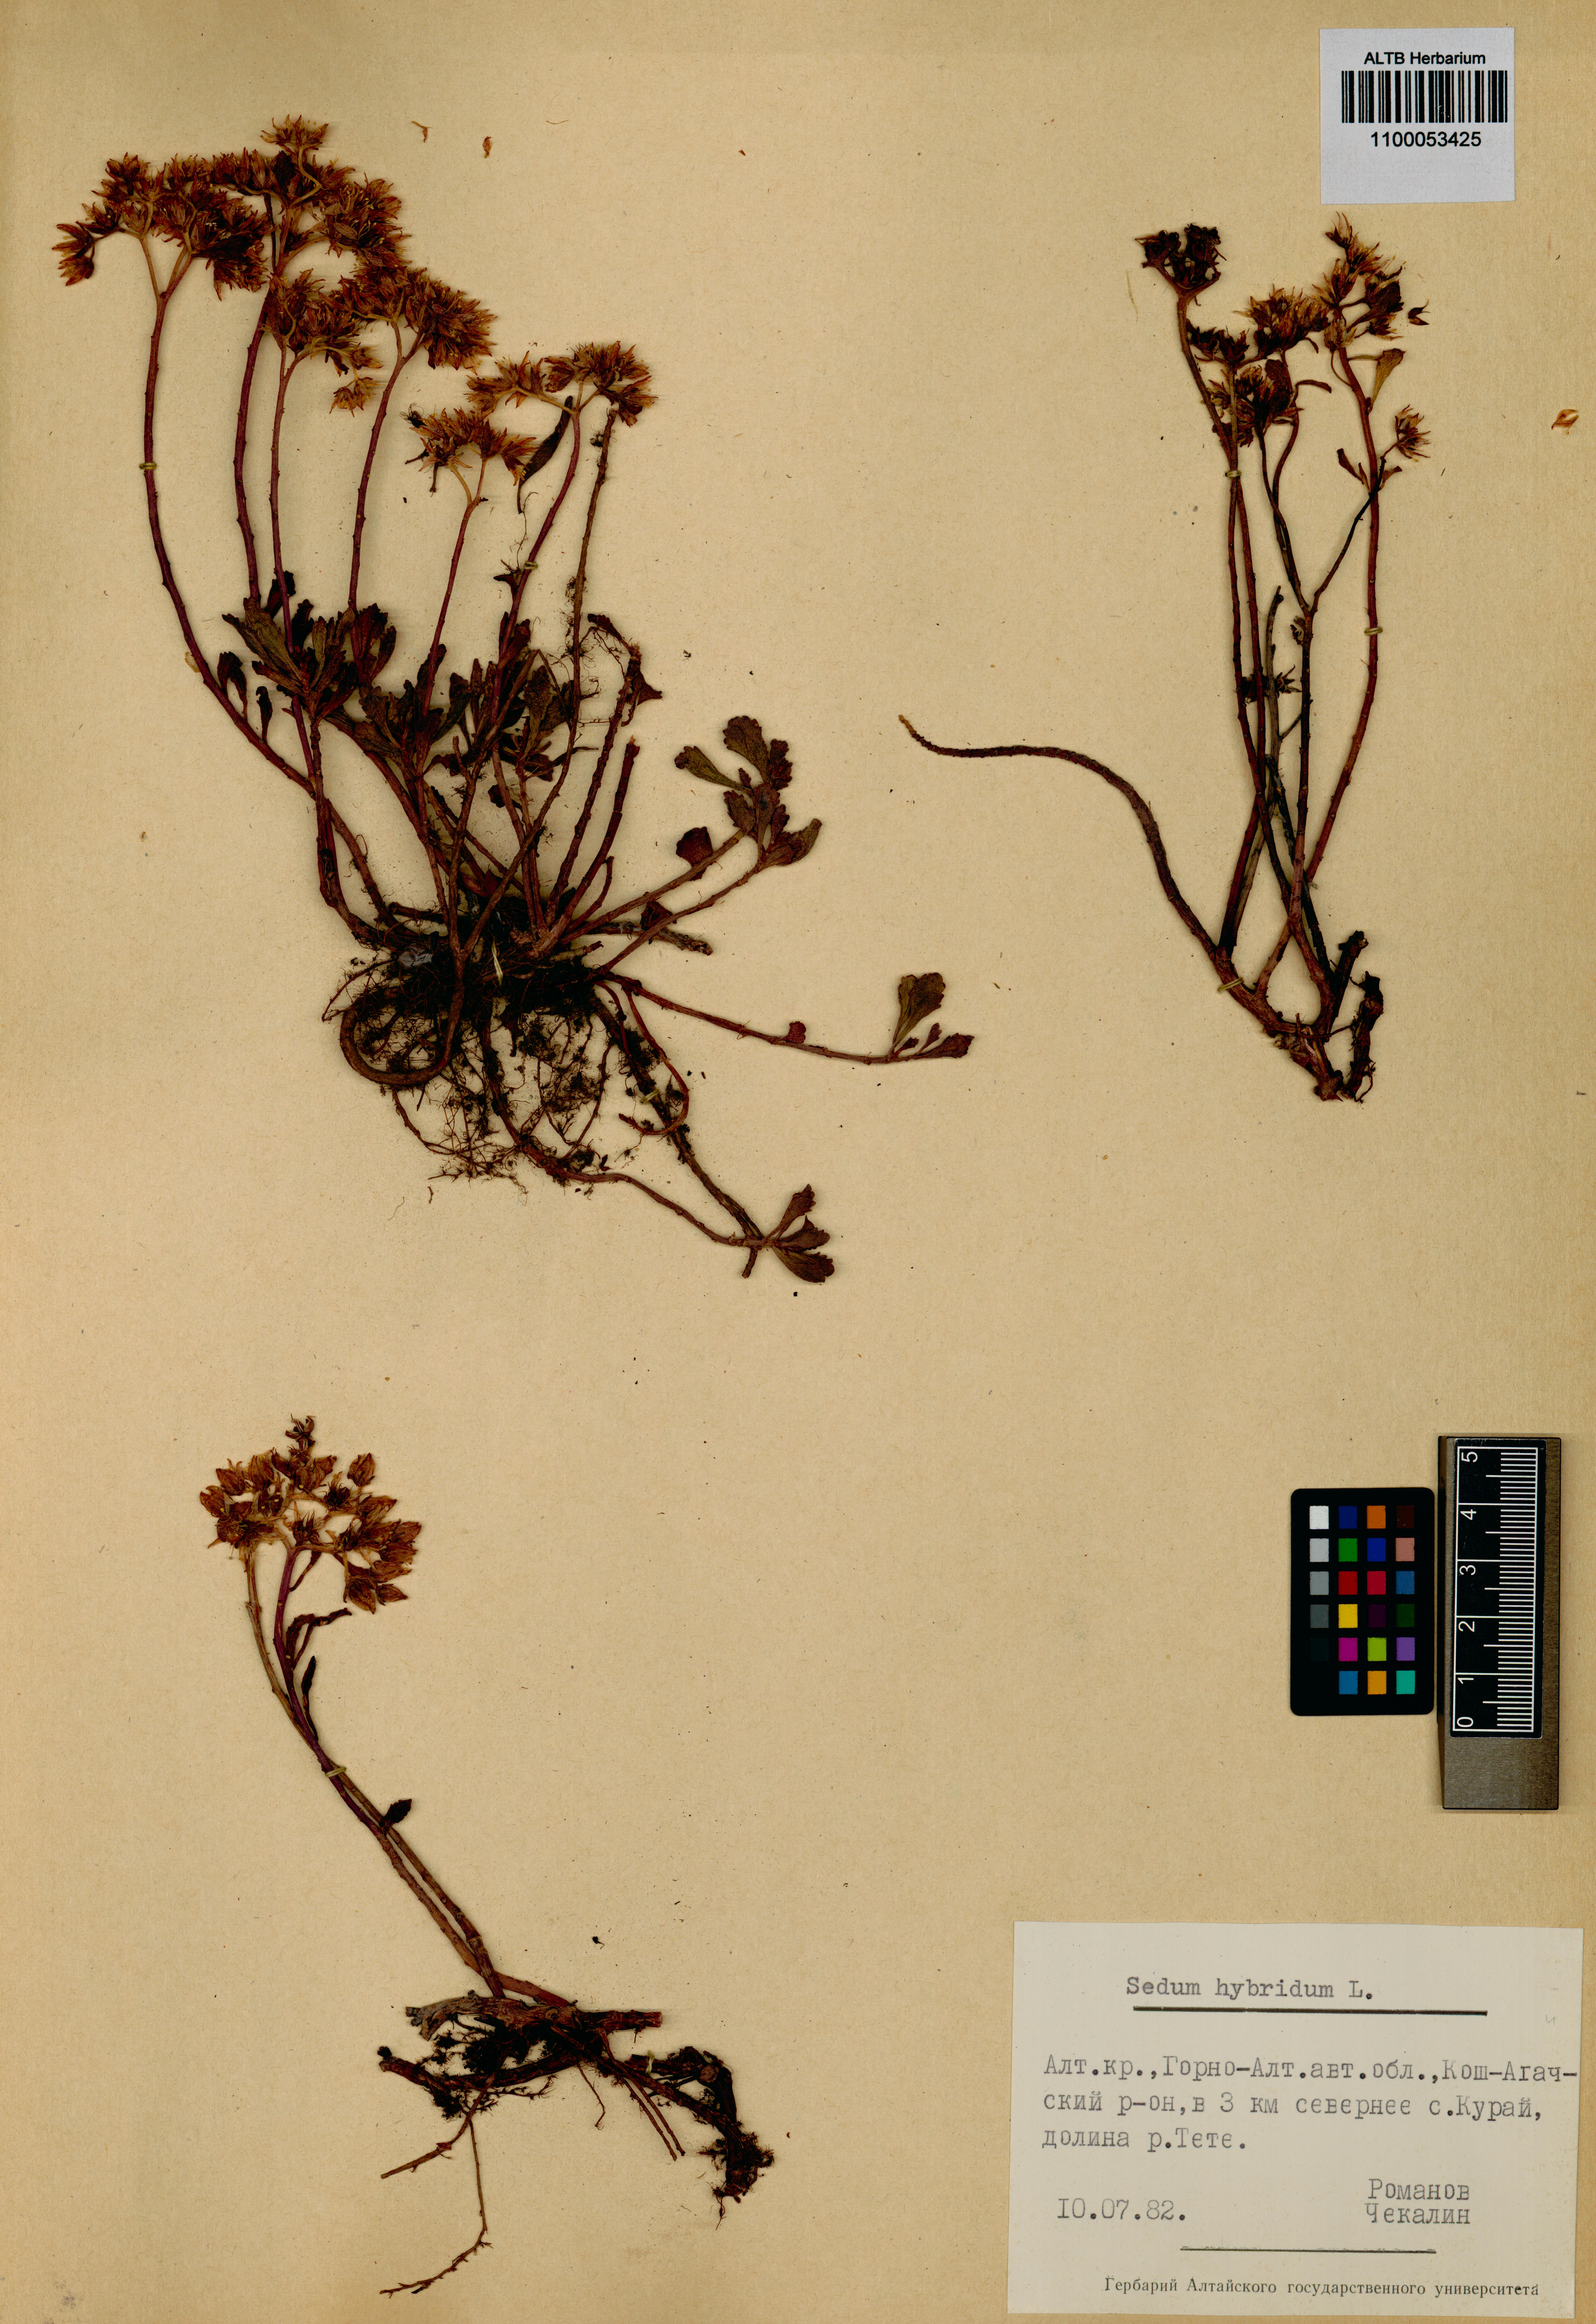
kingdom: Plantae
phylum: Tracheophyta
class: Magnoliopsida
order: Saxifragales
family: Crassulaceae
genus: Phedimus
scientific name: Phedimus hybridus
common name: Hybrid stonecrop
